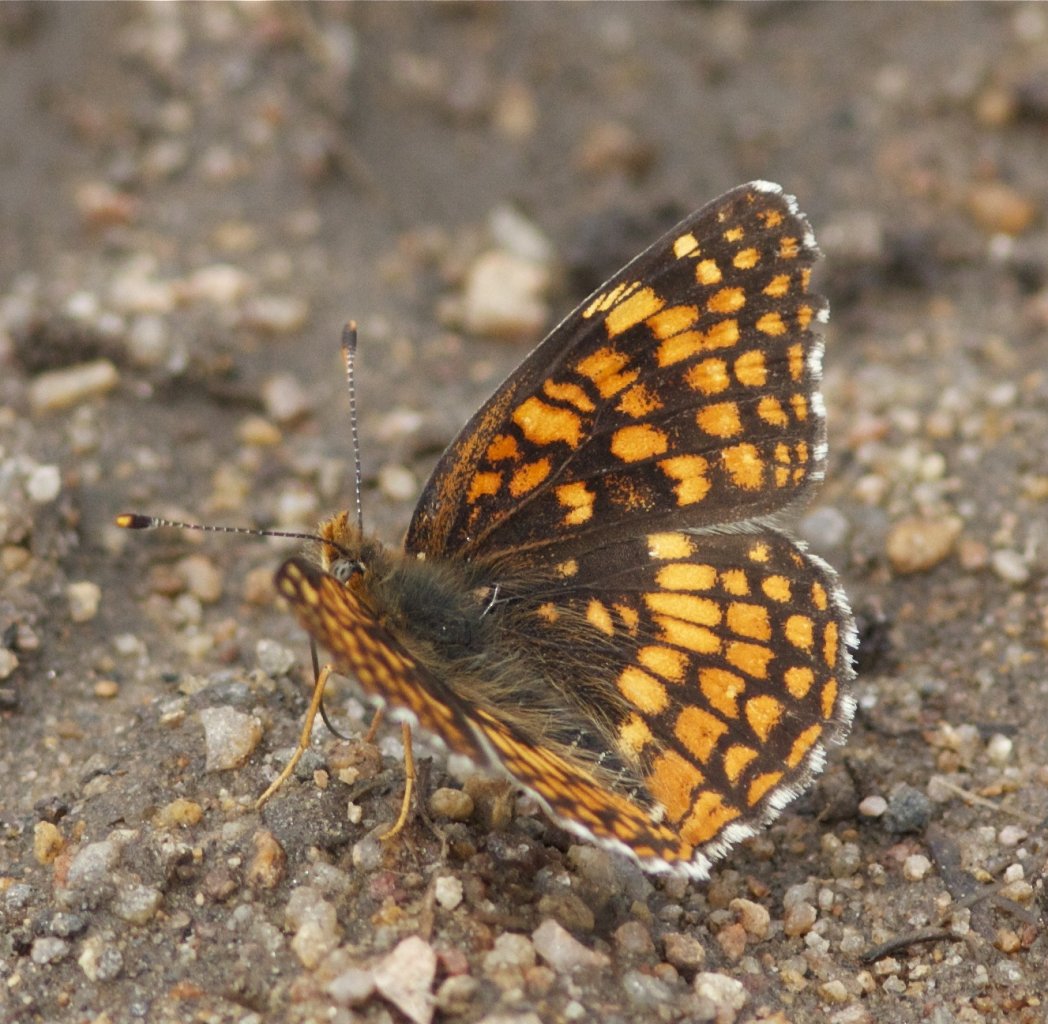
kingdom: Animalia
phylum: Arthropoda
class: Insecta
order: Lepidoptera
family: Nymphalidae
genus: Chlosyne
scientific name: Chlosyne palla
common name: Northern Checkerspot
